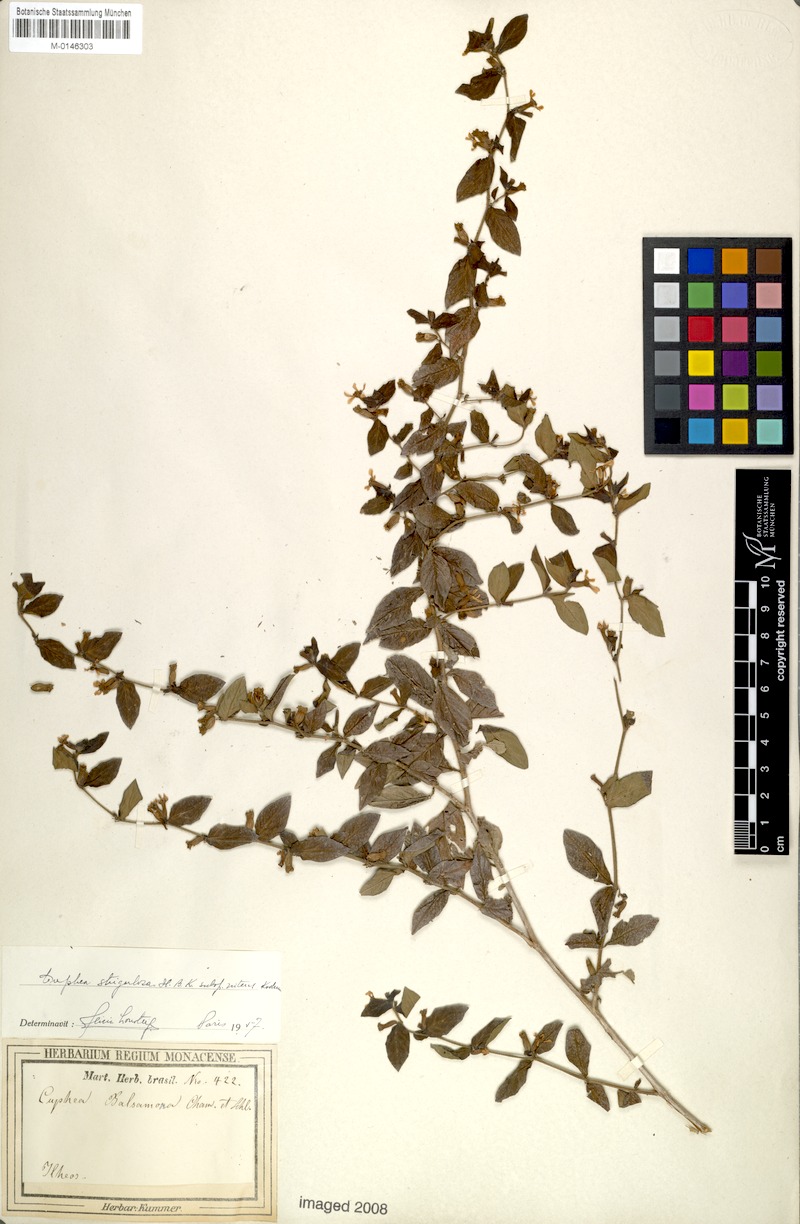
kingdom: Plantae
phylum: Tracheophyta
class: Magnoliopsida
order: Myrtales
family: Lythraceae
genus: Cuphea
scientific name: Cuphea strigulosa
